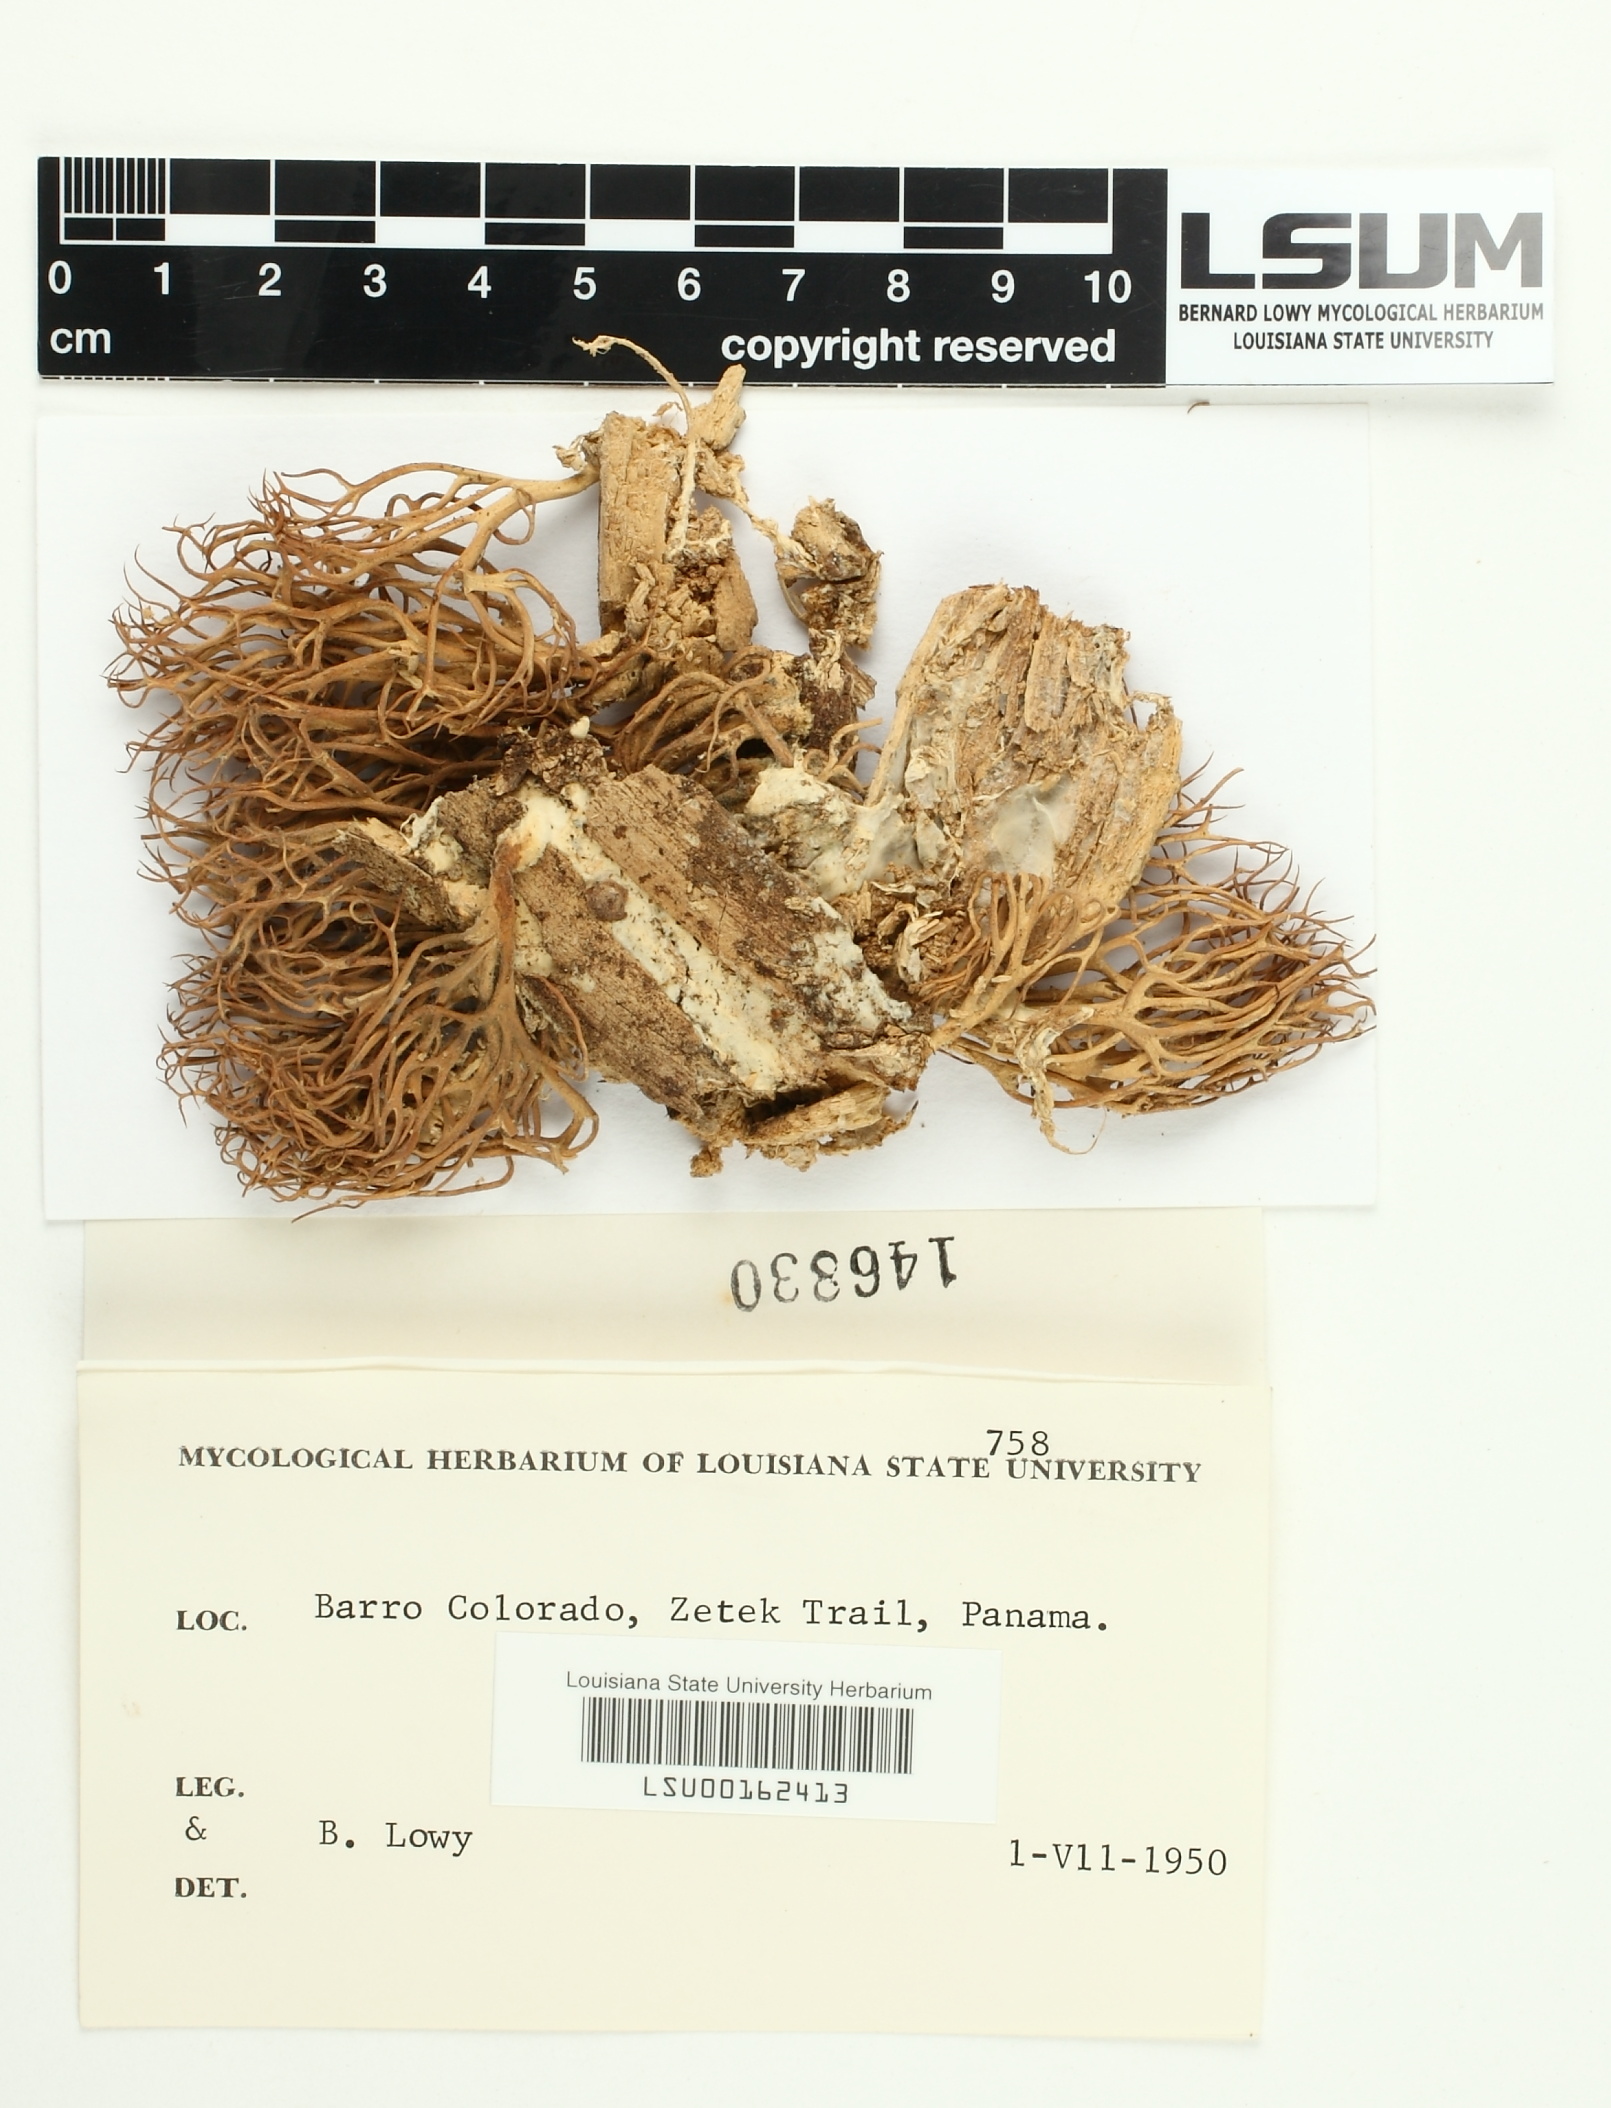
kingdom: Fungi
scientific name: Fungi
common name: Fungi
